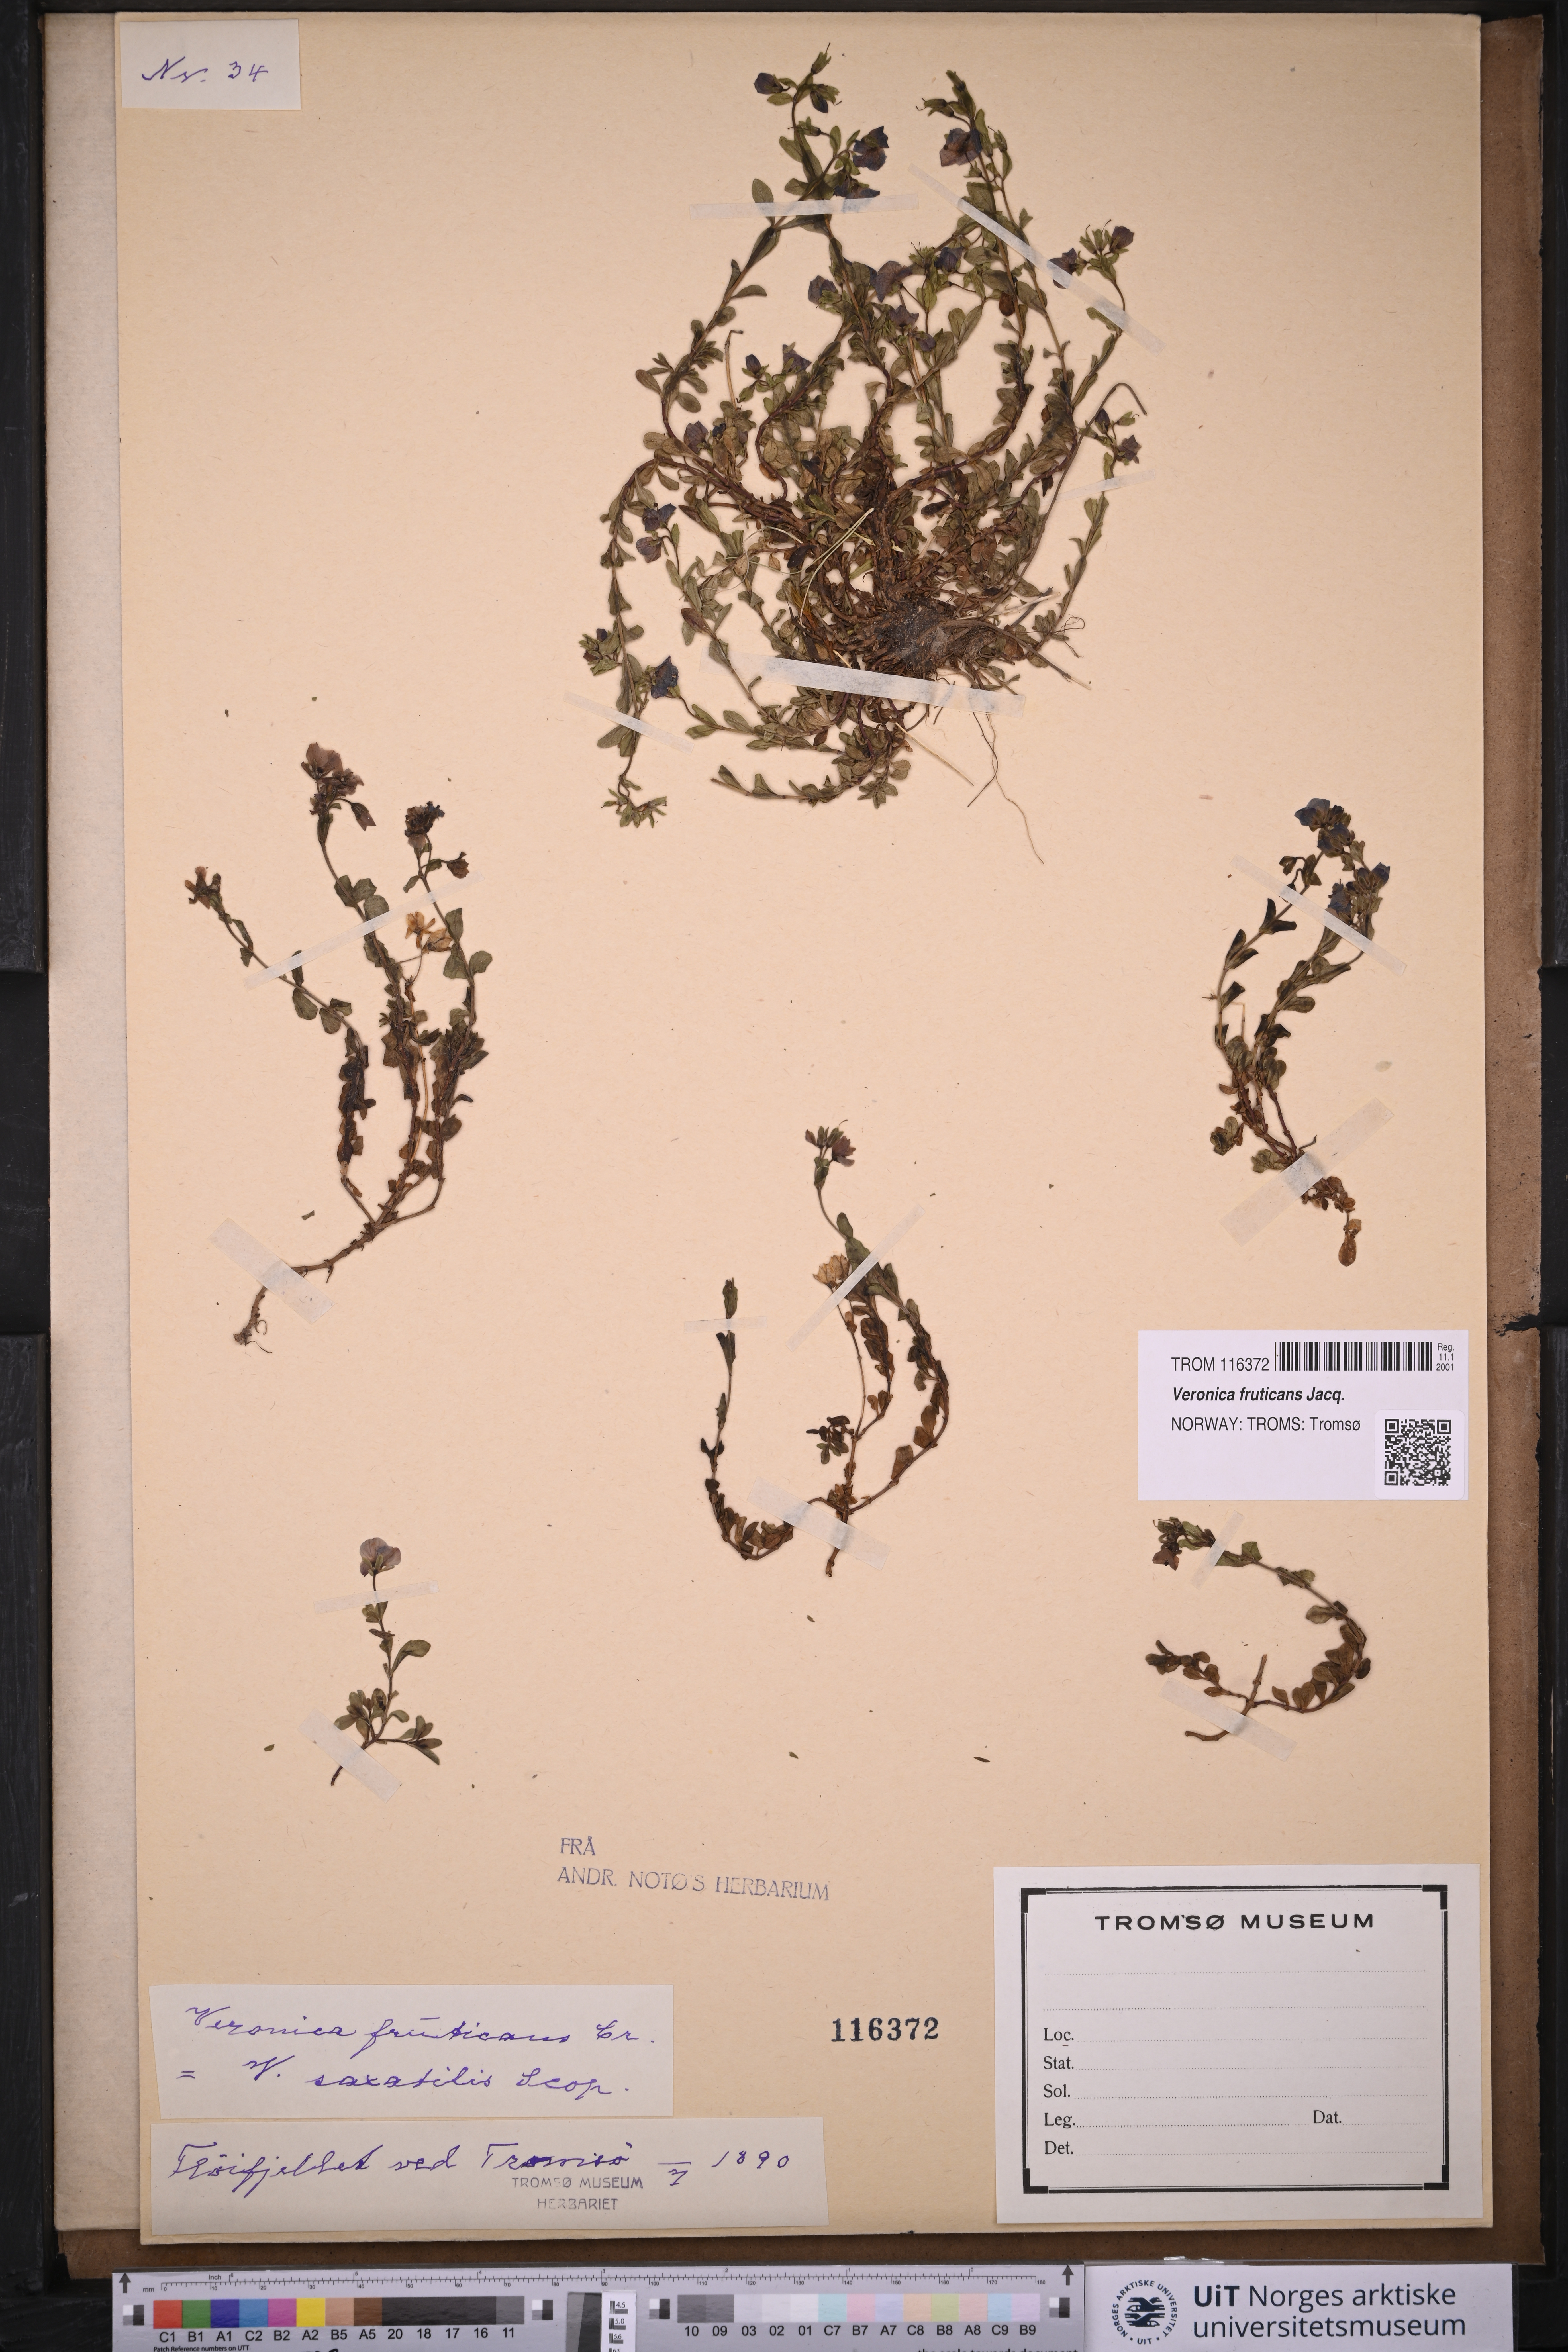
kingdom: Plantae
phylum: Tracheophyta
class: Magnoliopsida
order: Lamiales
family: Plantaginaceae
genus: Veronica
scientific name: Veronica fruticans
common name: Rock speedwell
